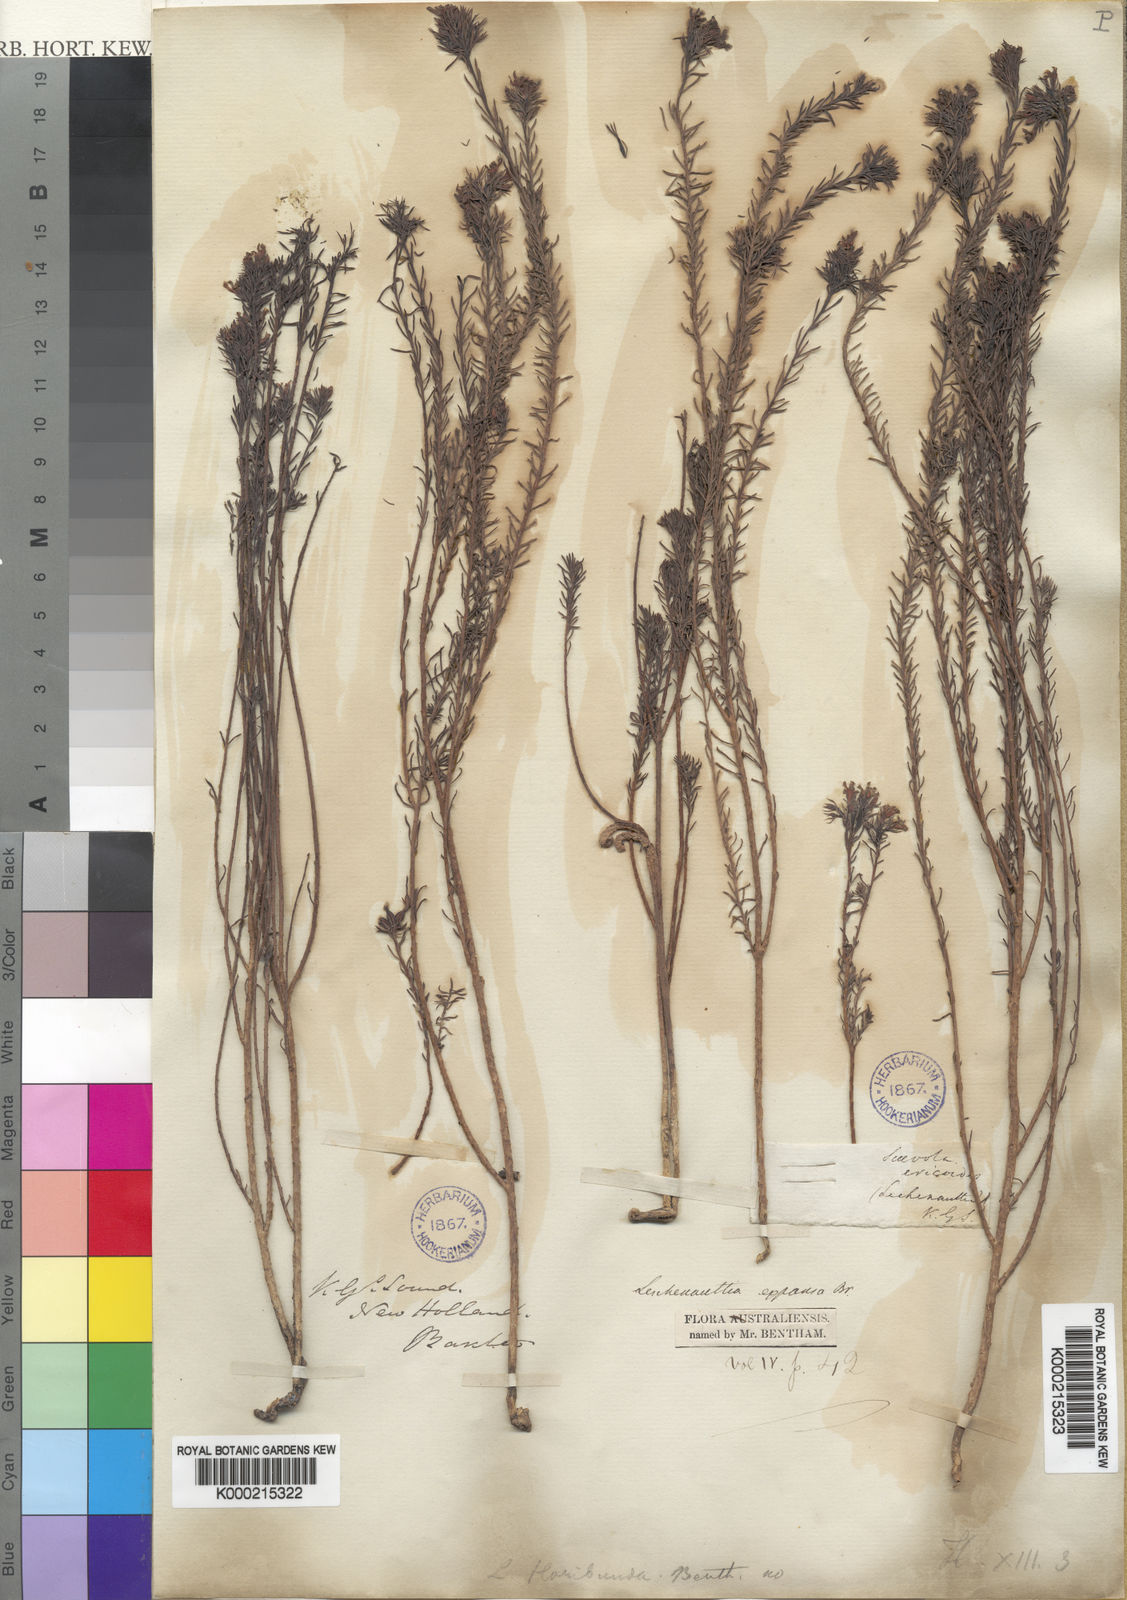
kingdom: Plantae
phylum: Tracheophyta
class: Magnoliopsida
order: Asterales
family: Goodeniaceae
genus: Leschenaultia
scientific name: Leschenaultia expansa
